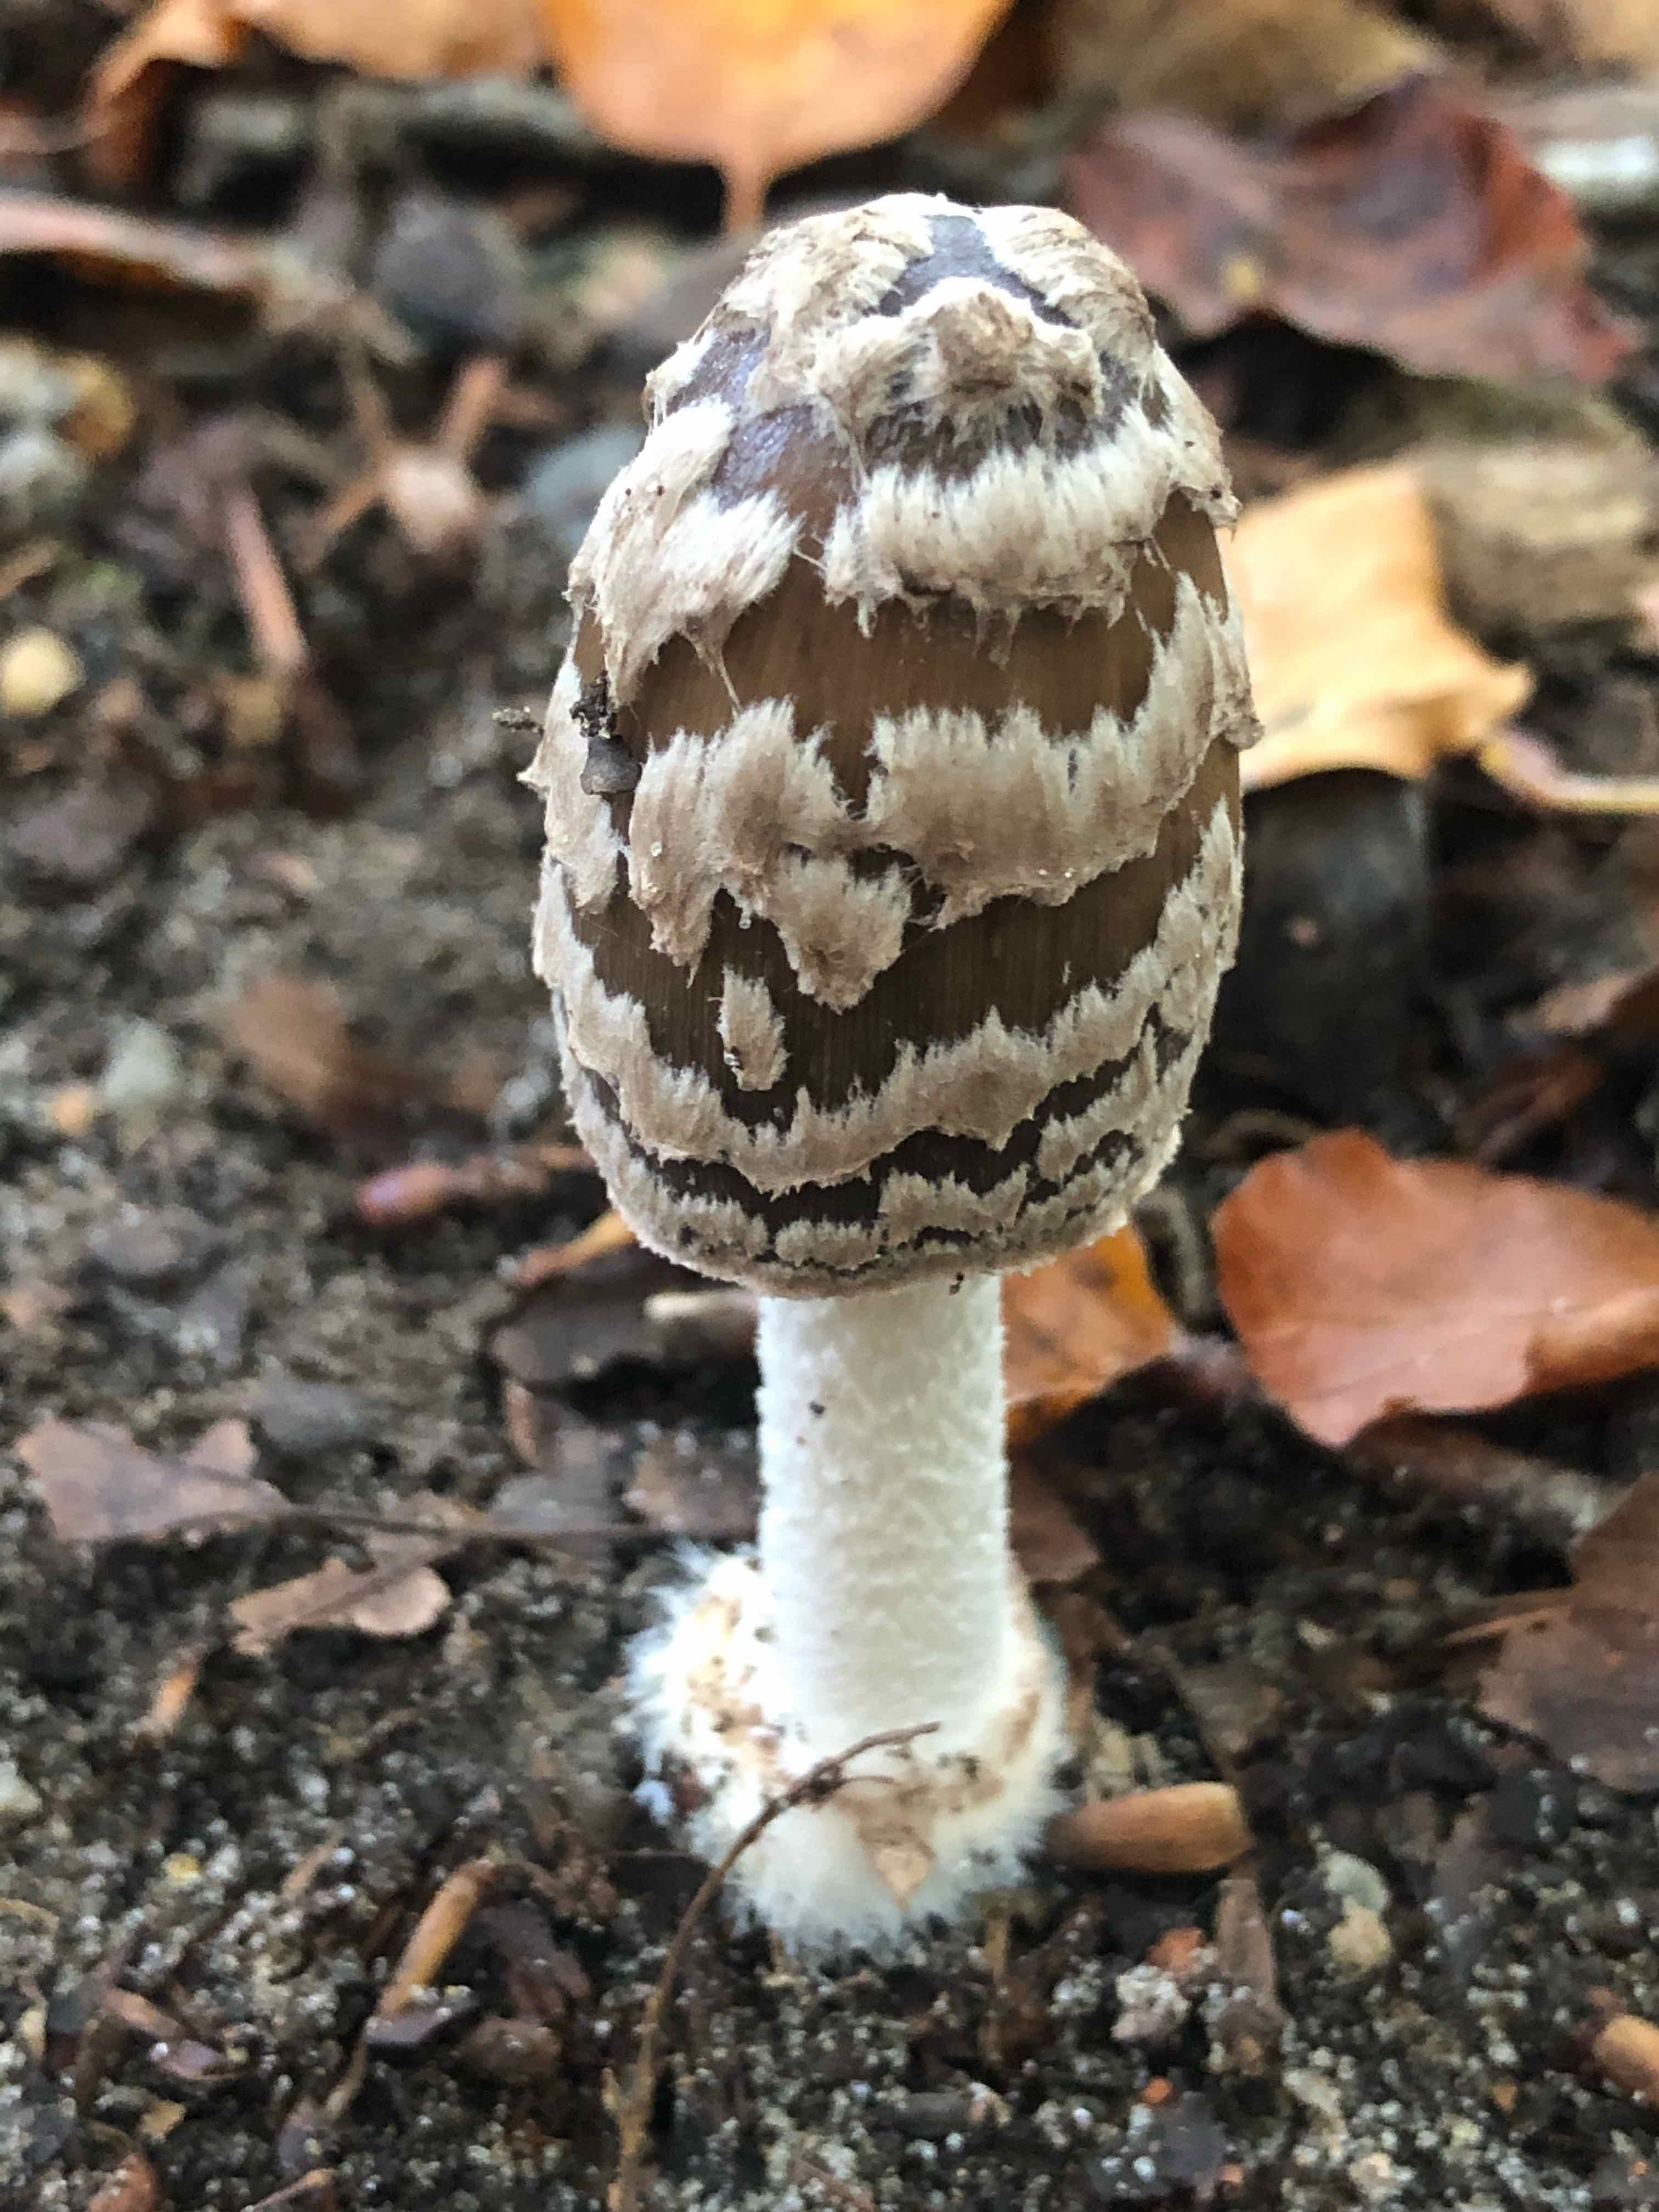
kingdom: Fungi
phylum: Basidiomycota
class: Agaricomycetes
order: Agaricales
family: Psathyrellaceae
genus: Coprinopsis
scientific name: Coprinopsis picacea
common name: skade-blækhat
